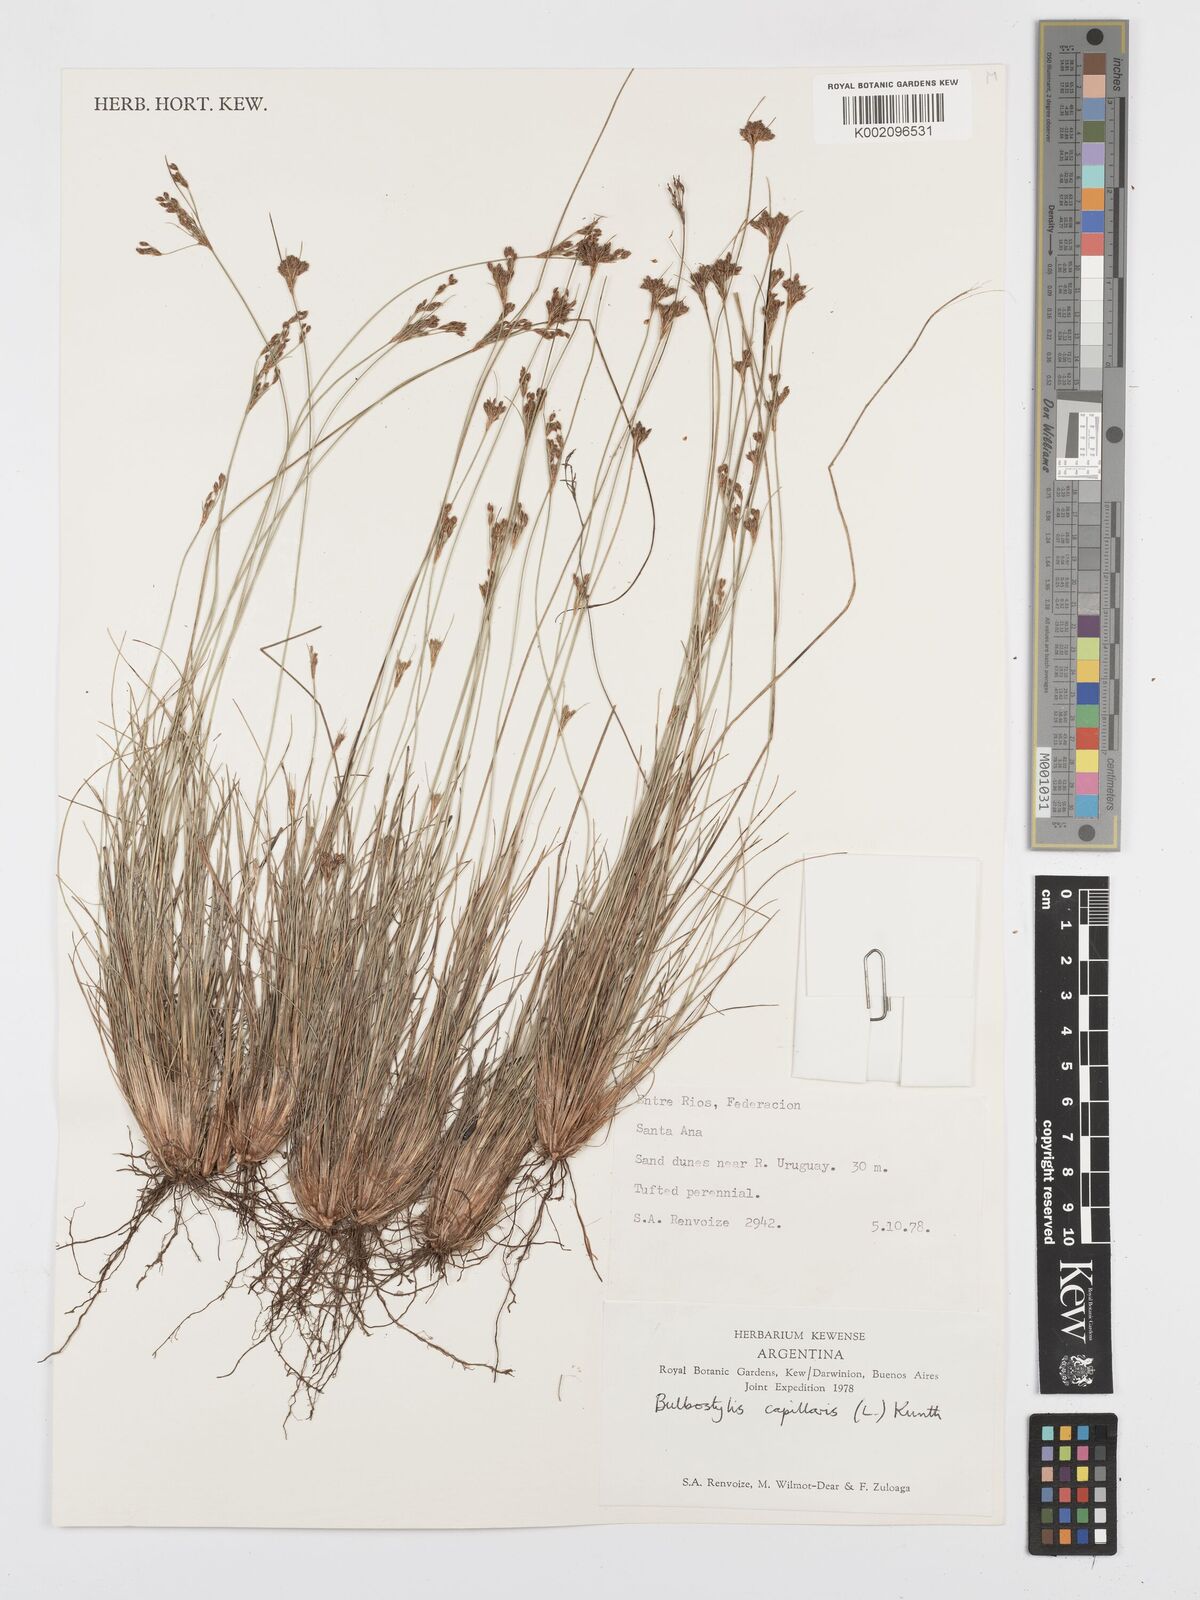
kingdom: Plantae
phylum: Tracheophyta
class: Liliopsida
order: Poales
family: Cyperaceae
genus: Bulbostylis
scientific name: Bulbostylis capillaris
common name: Densetuft hairsedge
